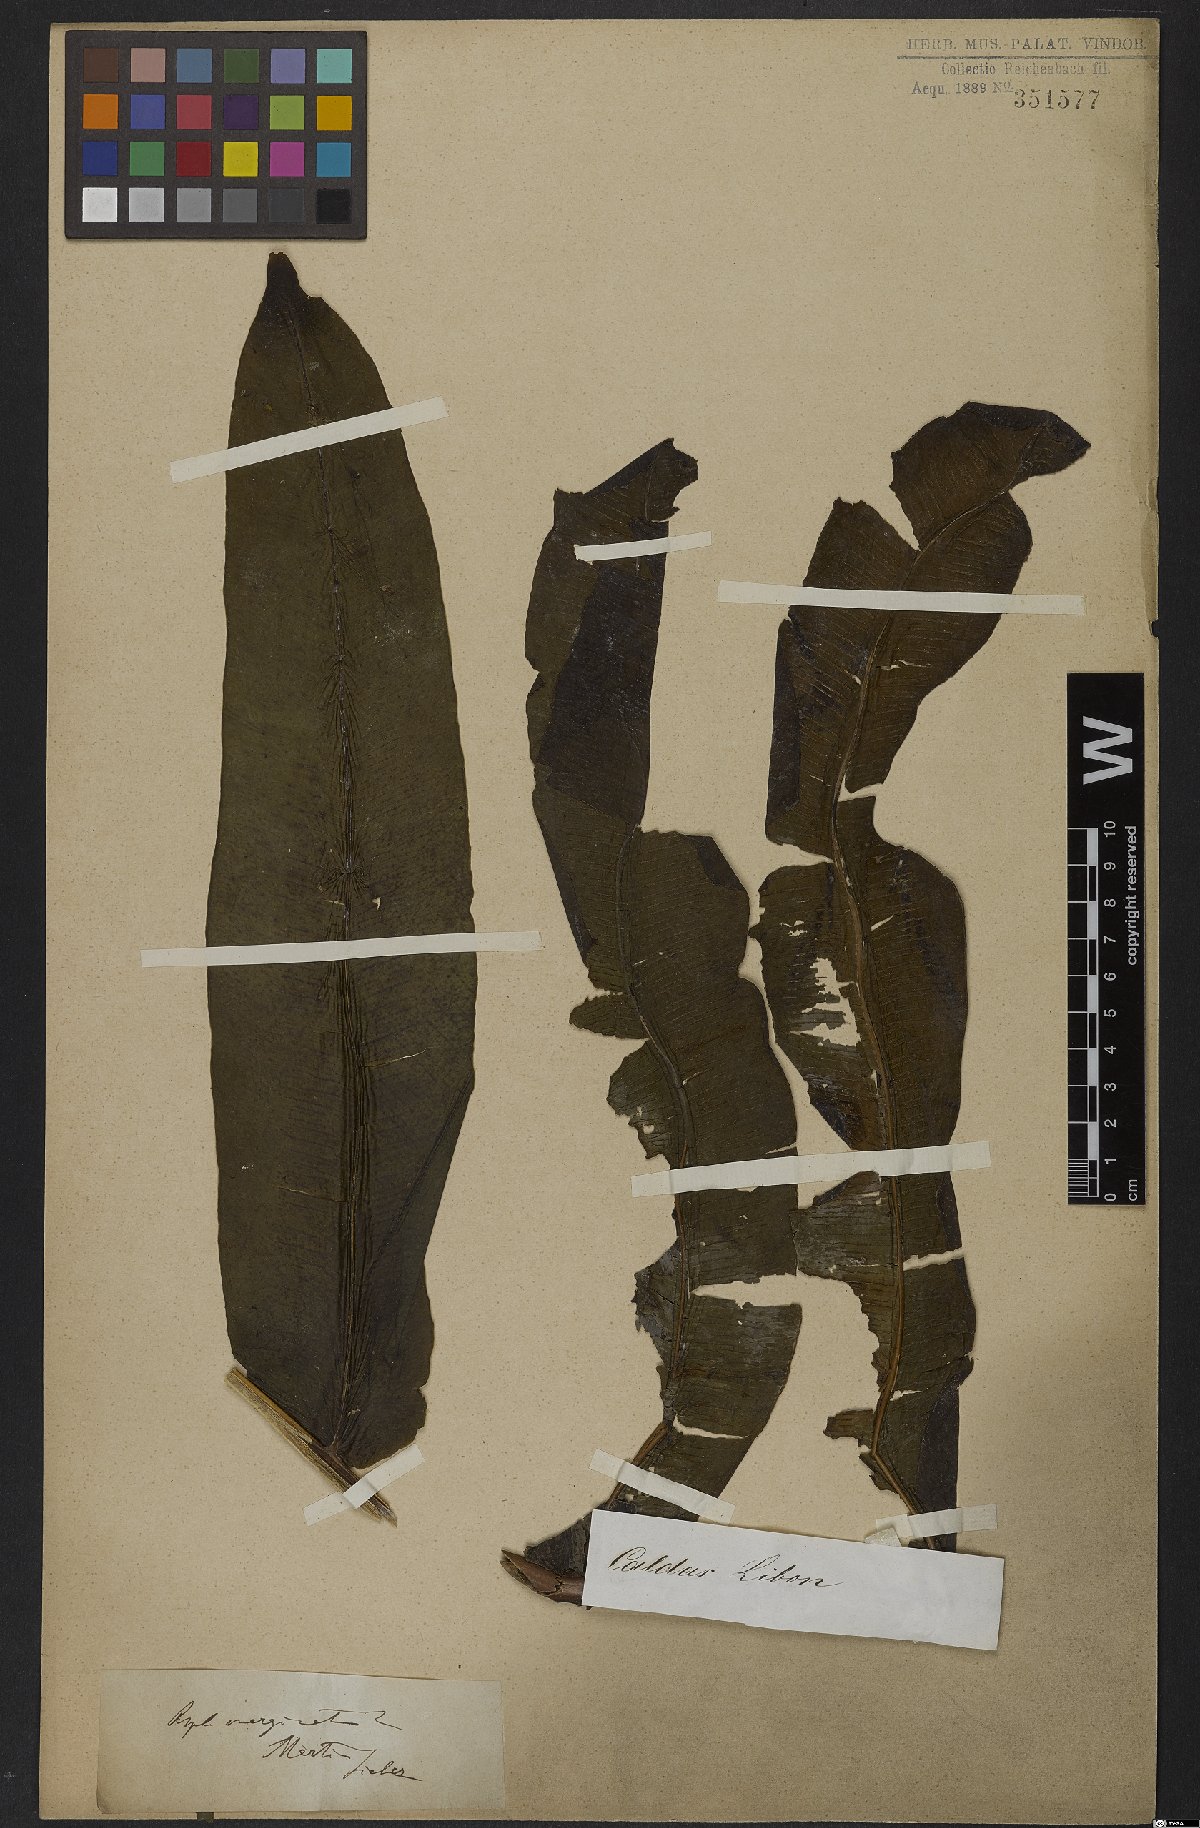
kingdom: Plantae
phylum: Tracheophyta
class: Polypodiopsida
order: Polypodiales
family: Hemidictyaceae
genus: Hemidictyum
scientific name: Hemidictyum marginatum
